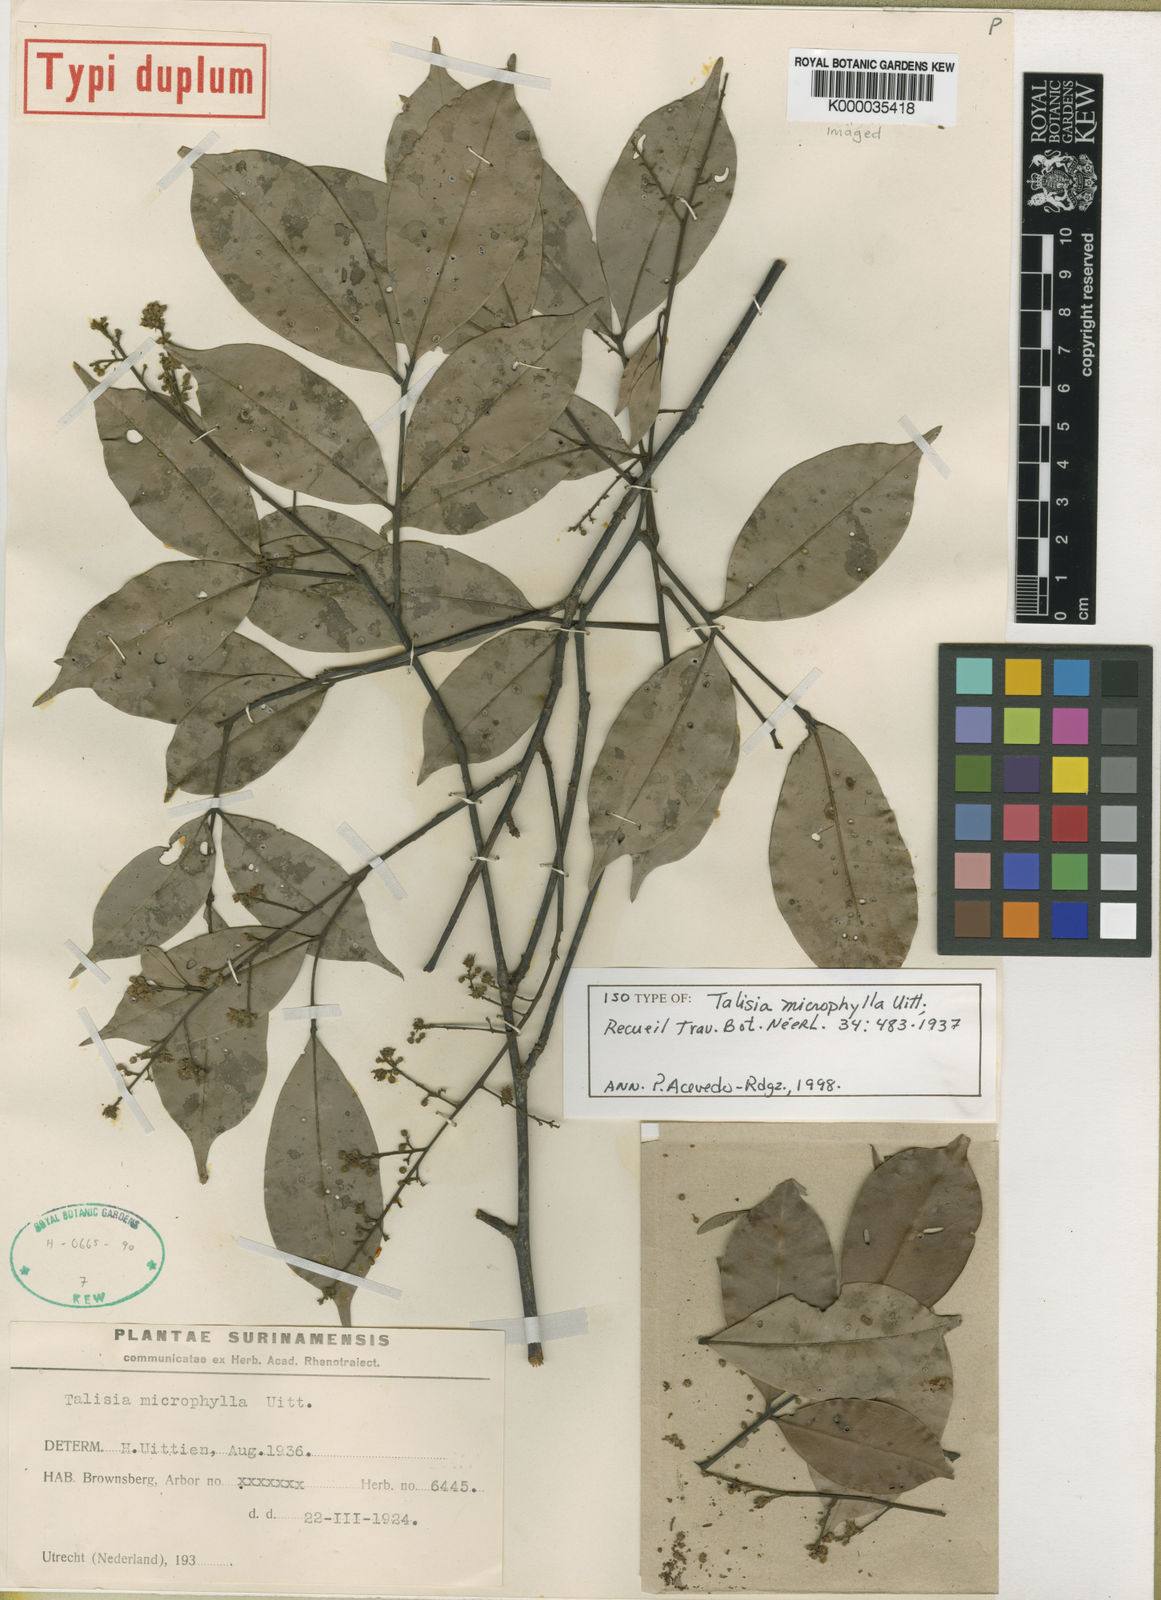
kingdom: Plantae
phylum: Tracheophyta
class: Magnoliopsida
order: Sapindales
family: Sapindaceae
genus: Talisia
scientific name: Talisia microphylla
